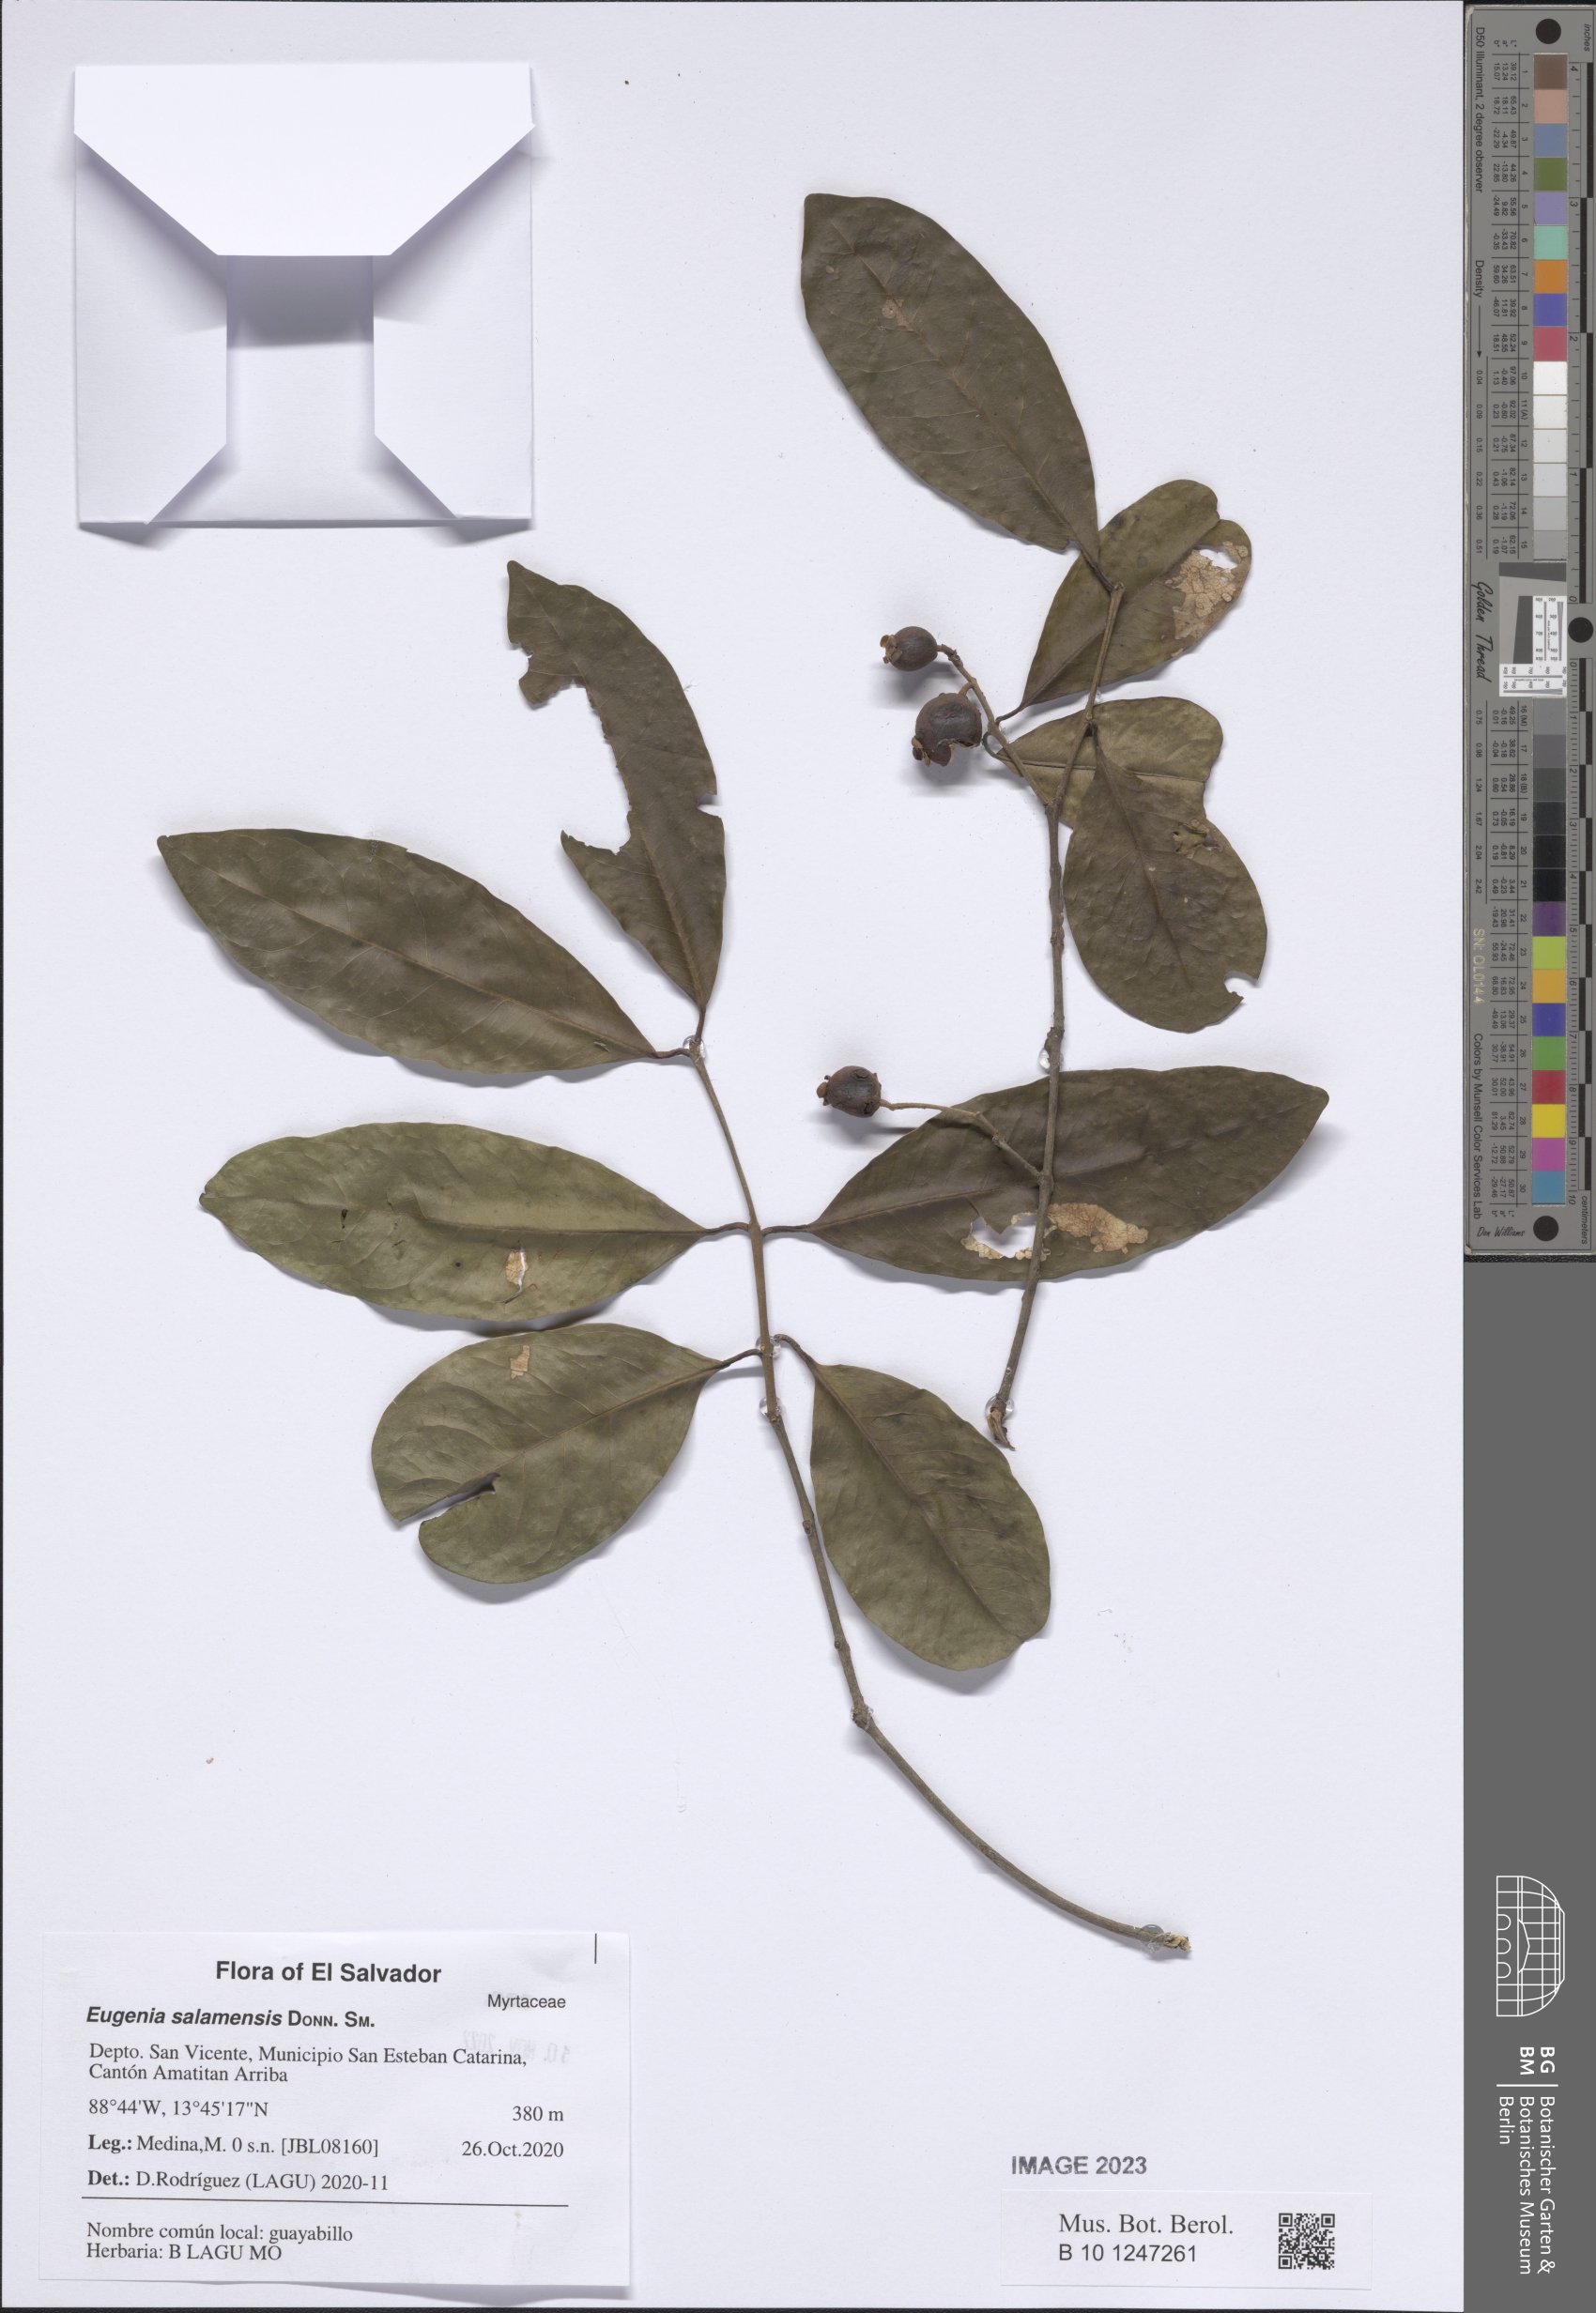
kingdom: Plantae
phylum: Tracheophyta
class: Magnoliopsida
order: Myrtales
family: Myrtaceae
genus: Eugenia
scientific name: Eugenia salamensis
